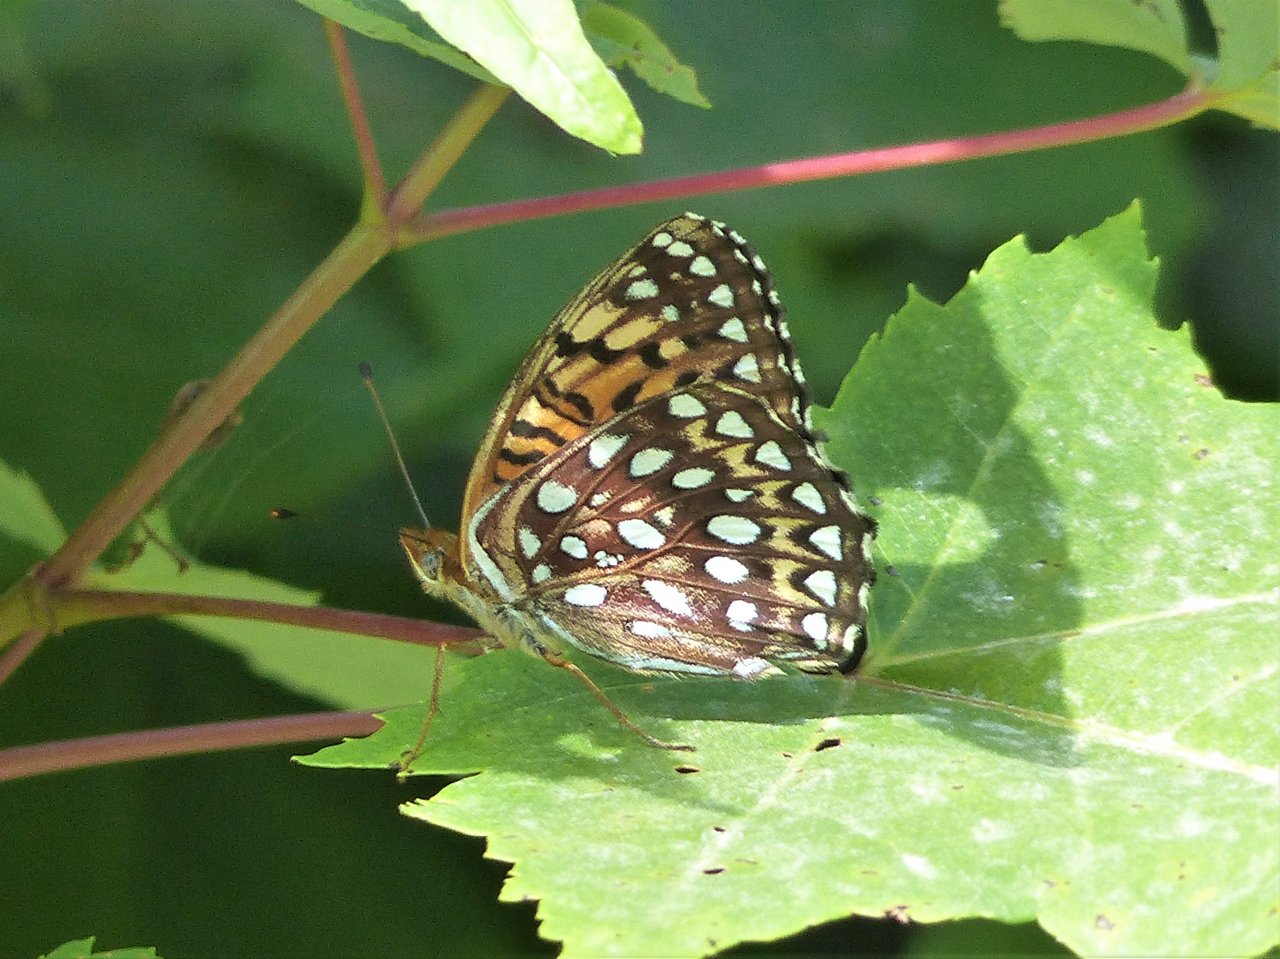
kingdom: Animalia
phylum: Arthropoda
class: Insecta
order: Lepidoptera
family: Nymphalidae
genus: Speyeria
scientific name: Speyeria atlantis
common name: Atlantis Fritillary
